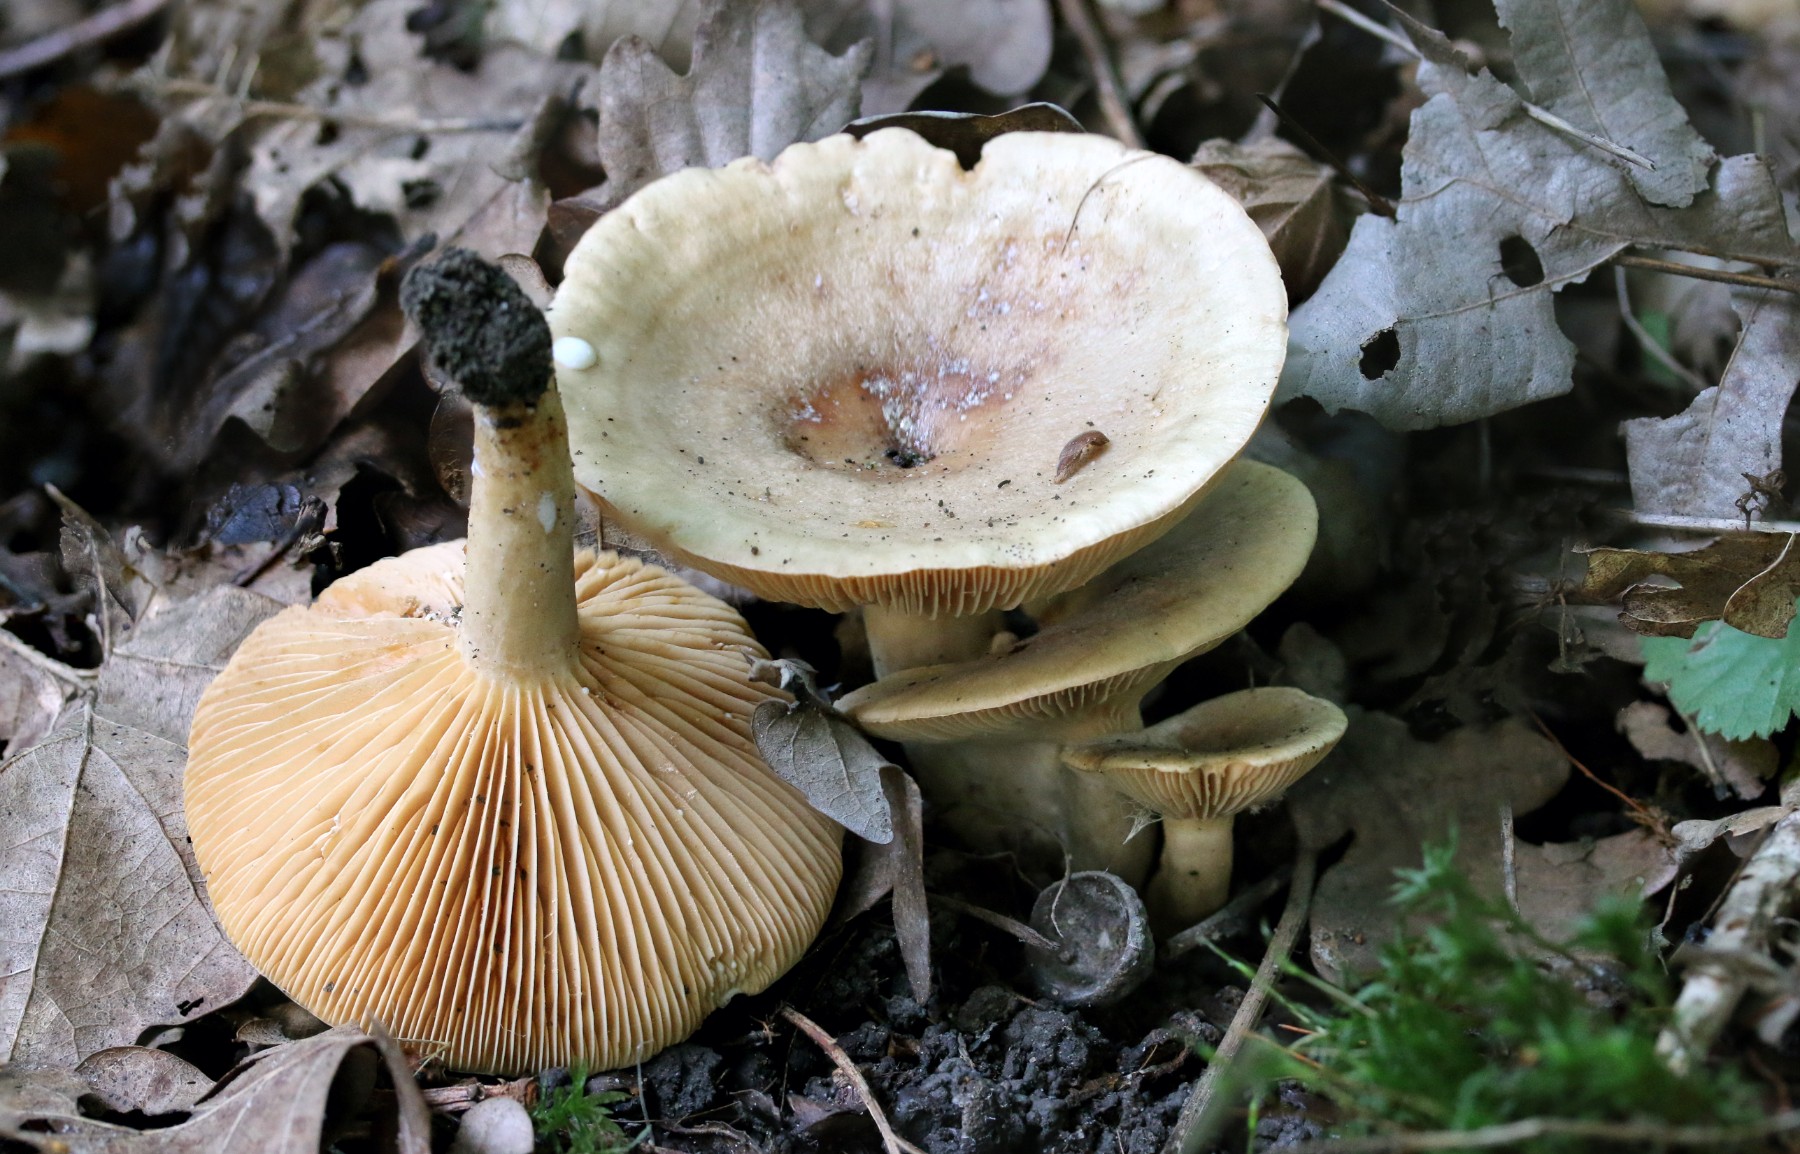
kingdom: Fungi
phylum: Basidiomycota
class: Agaricomycetes
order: Russulales
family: Russulaceae
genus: Lactarius
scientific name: Lactarius pyrogalus
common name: hassel-mælkehat
